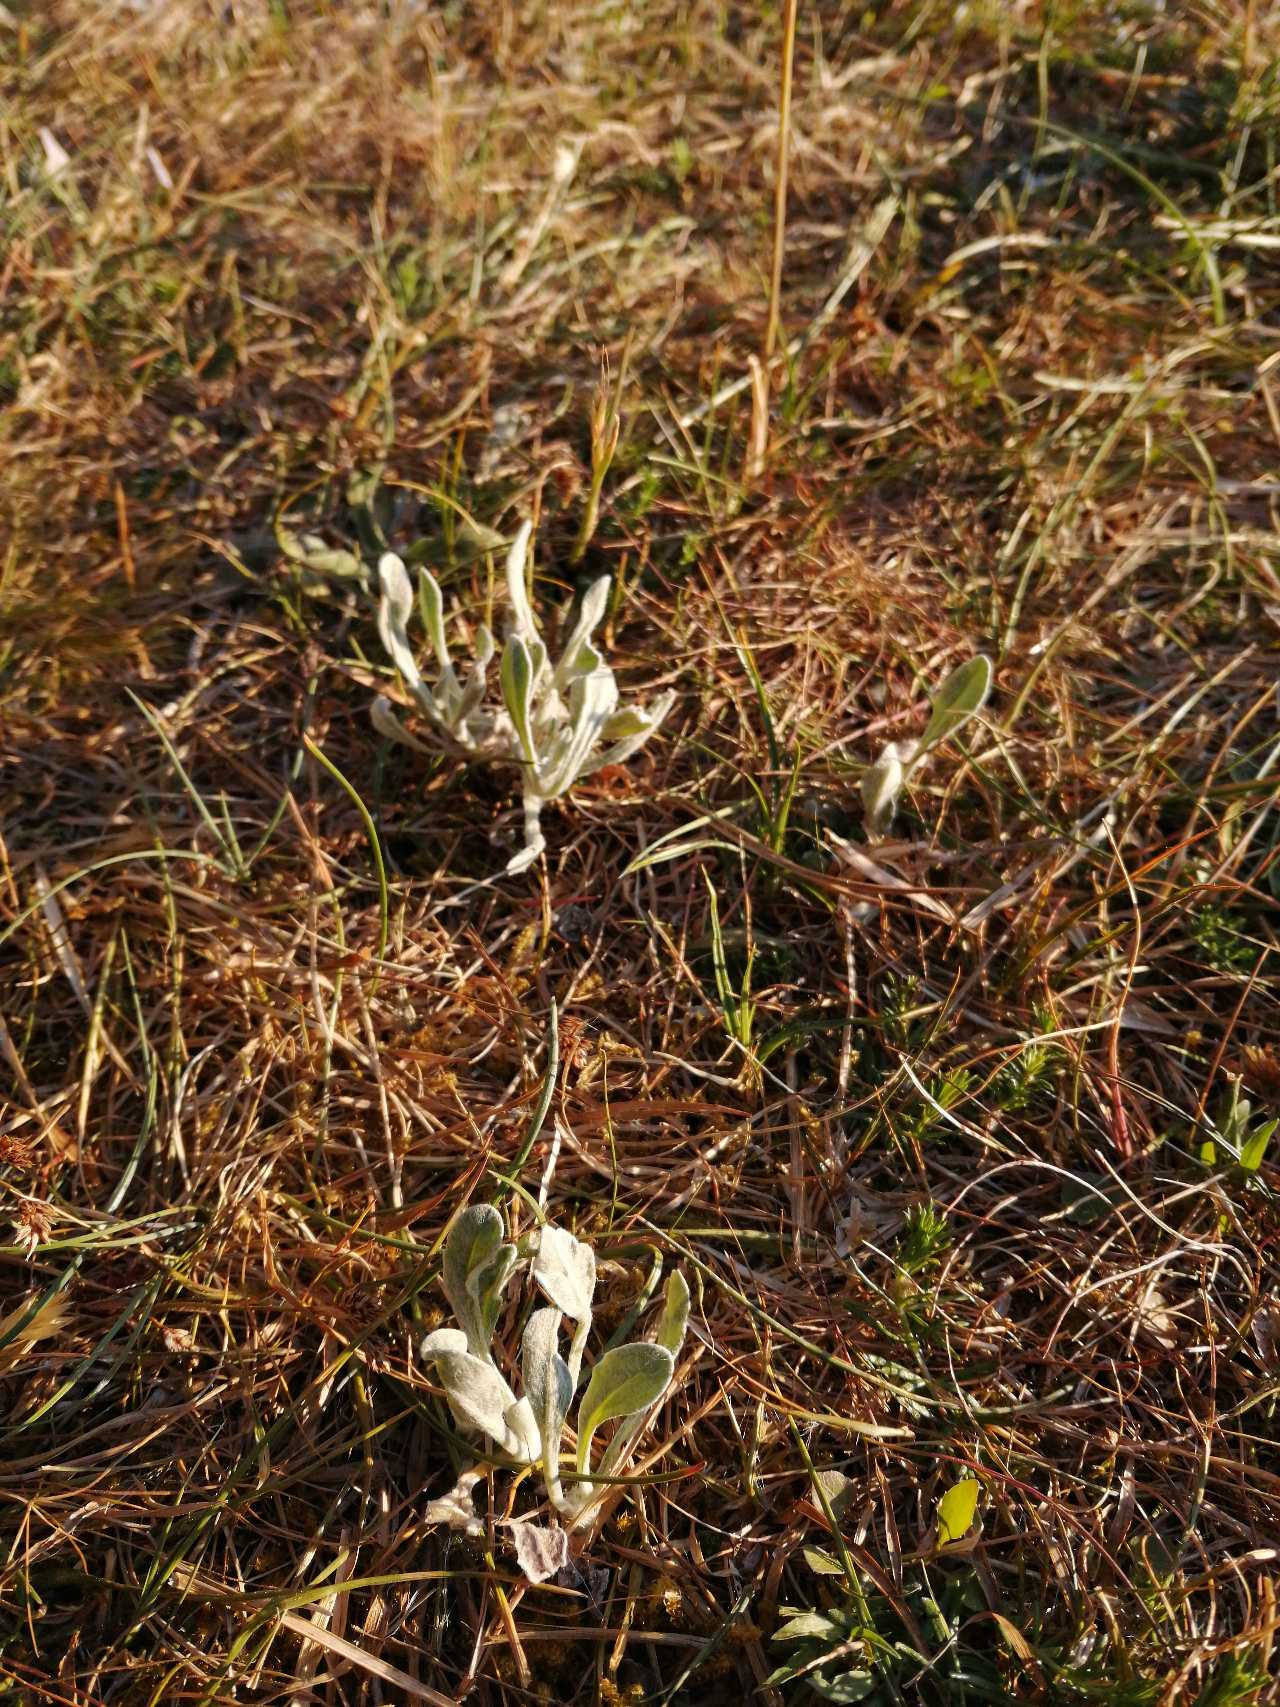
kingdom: Plantae
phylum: Tracheophyta
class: Magnoliopsida
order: Asterales
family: Asteraceae
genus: Helichrysum
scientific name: Helichrysum arenarium
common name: Gul evighedsblomst
